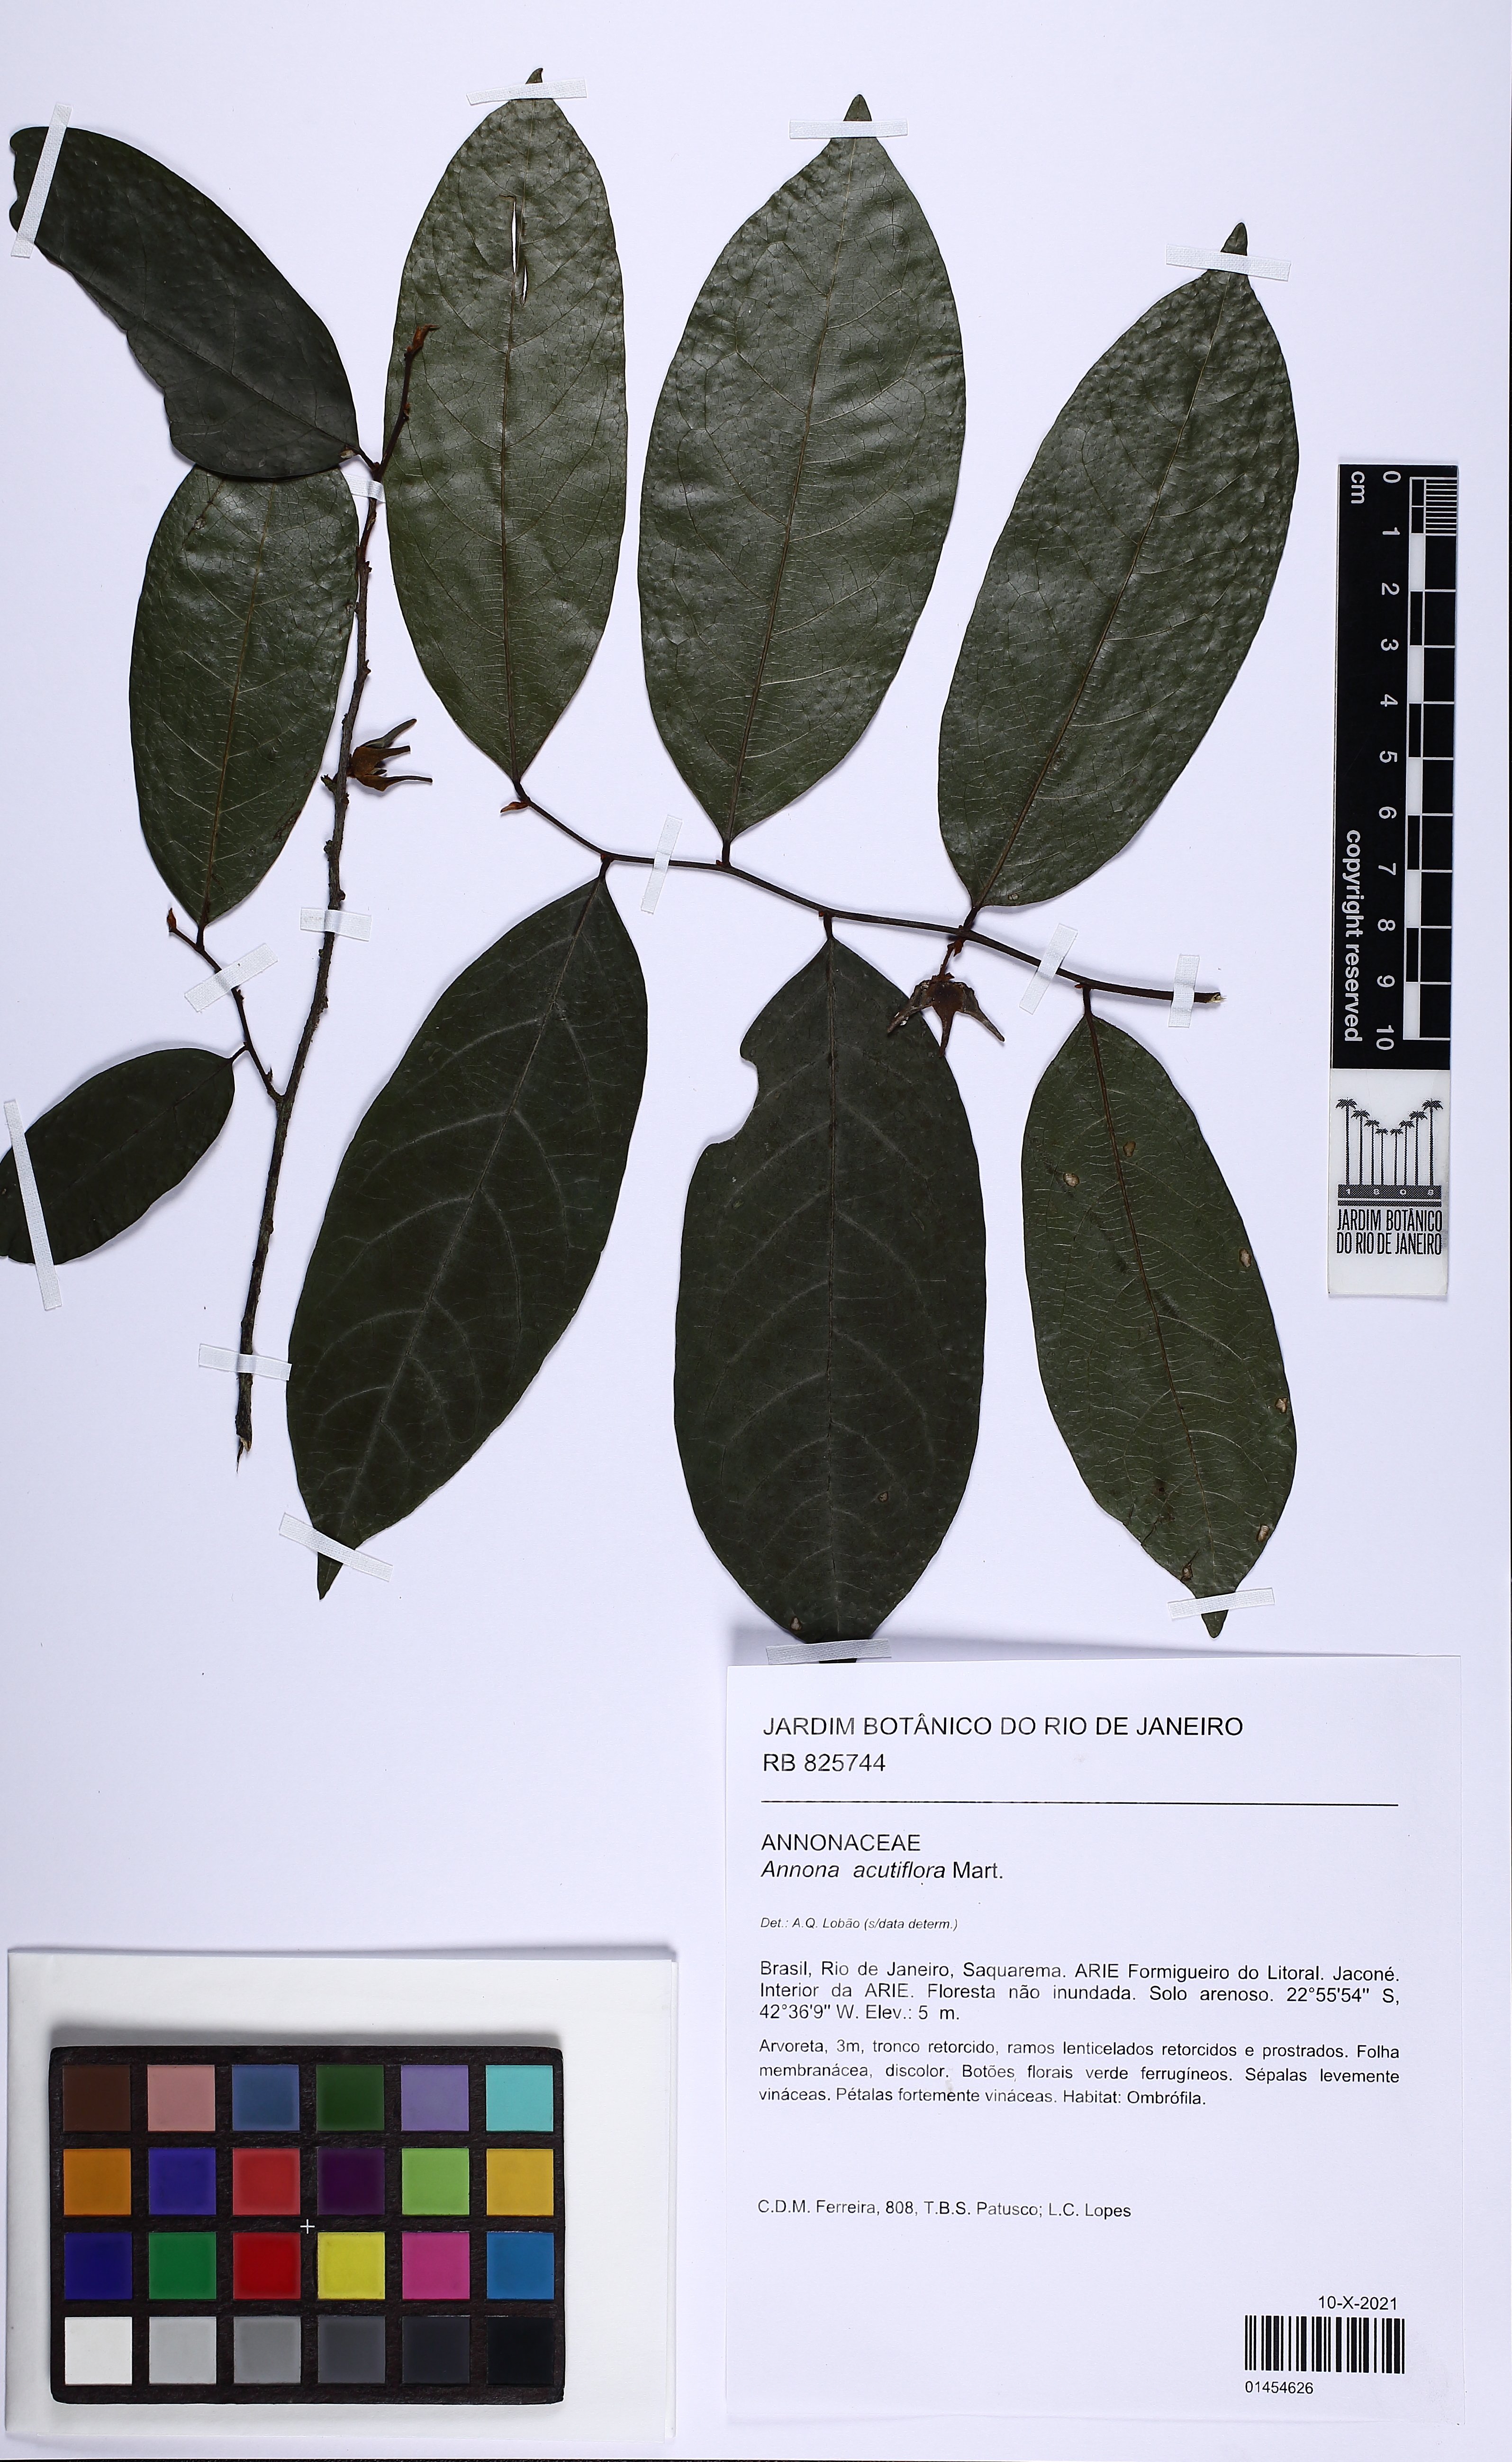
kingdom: Plantae
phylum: Tracheophyta
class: Magnoliopsida
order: Magnoliales
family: Annonaceae
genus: Annona
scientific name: Annona acutiflora
